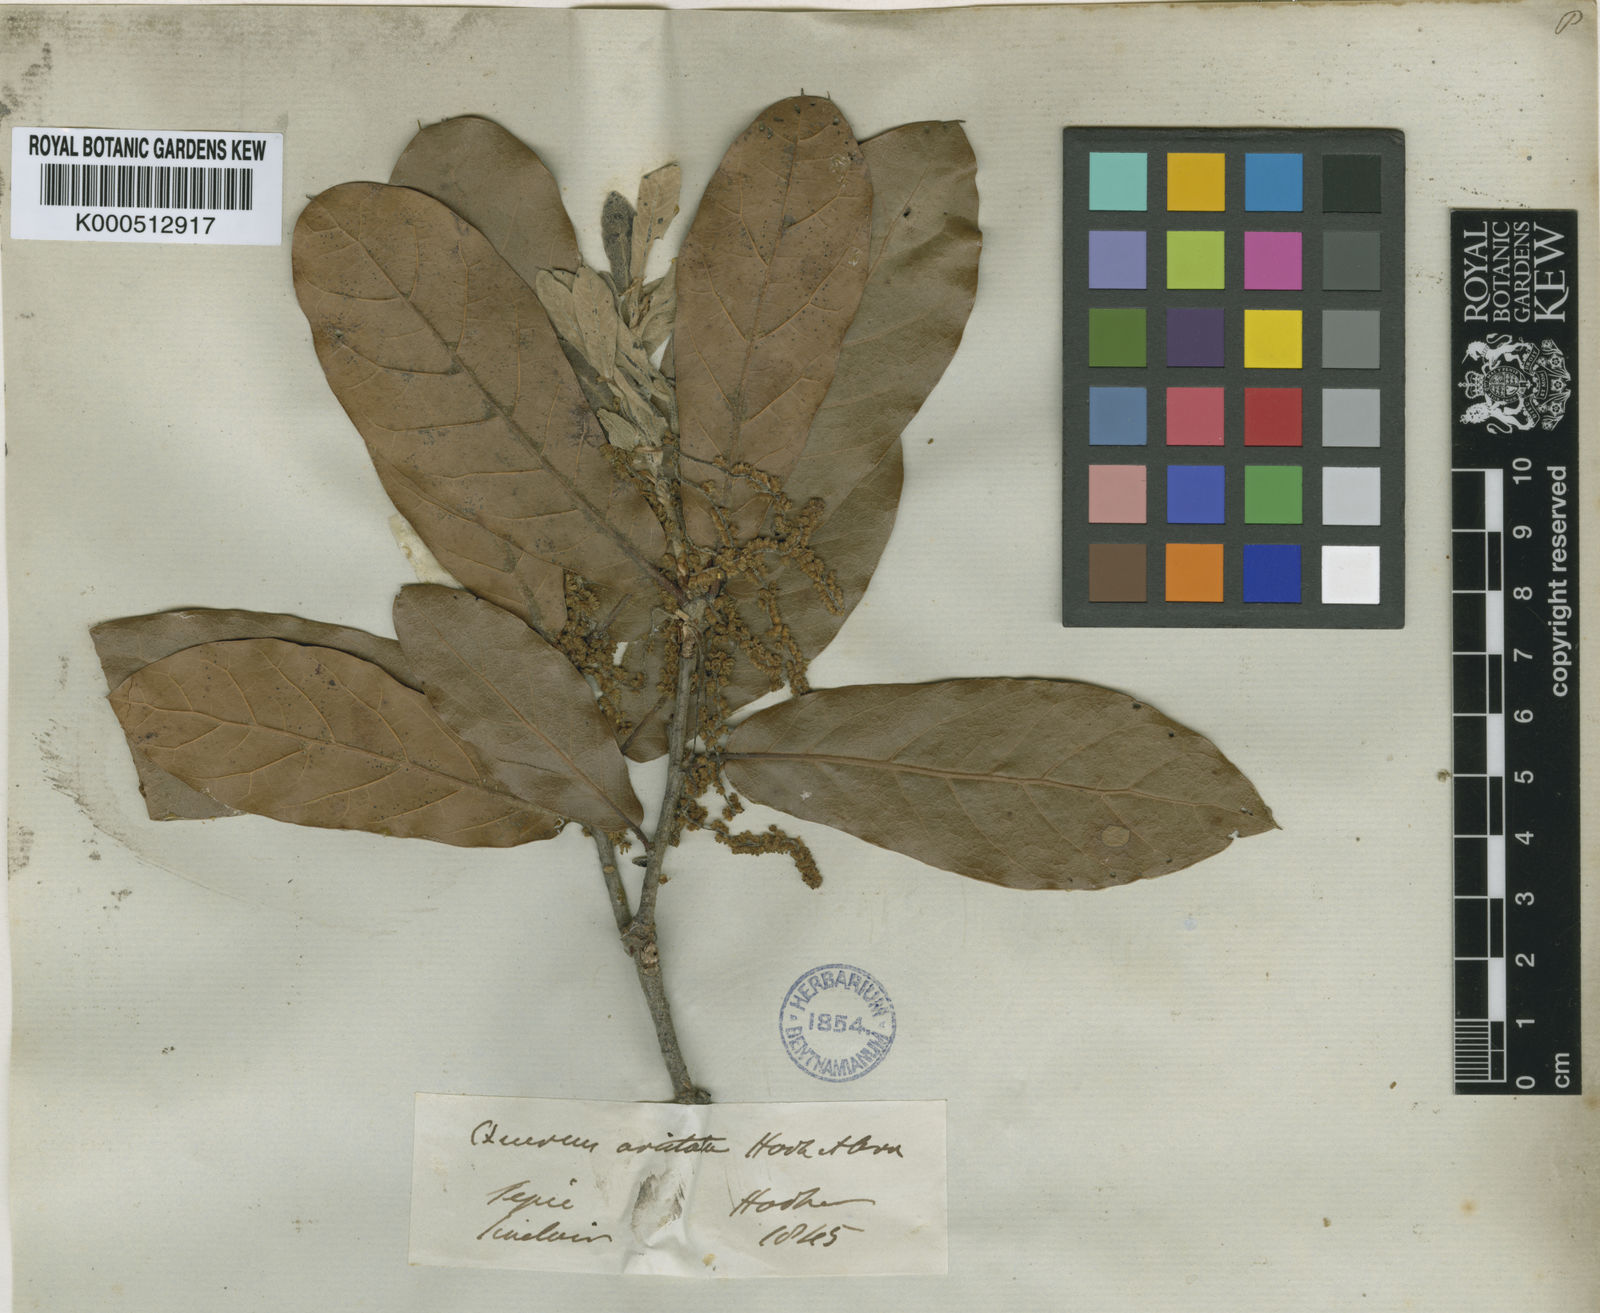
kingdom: Plantae
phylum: Tracheophyta
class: Magnoliopsida
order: Fagales
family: Fagaceae
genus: Quercus
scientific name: Quercus aristata
